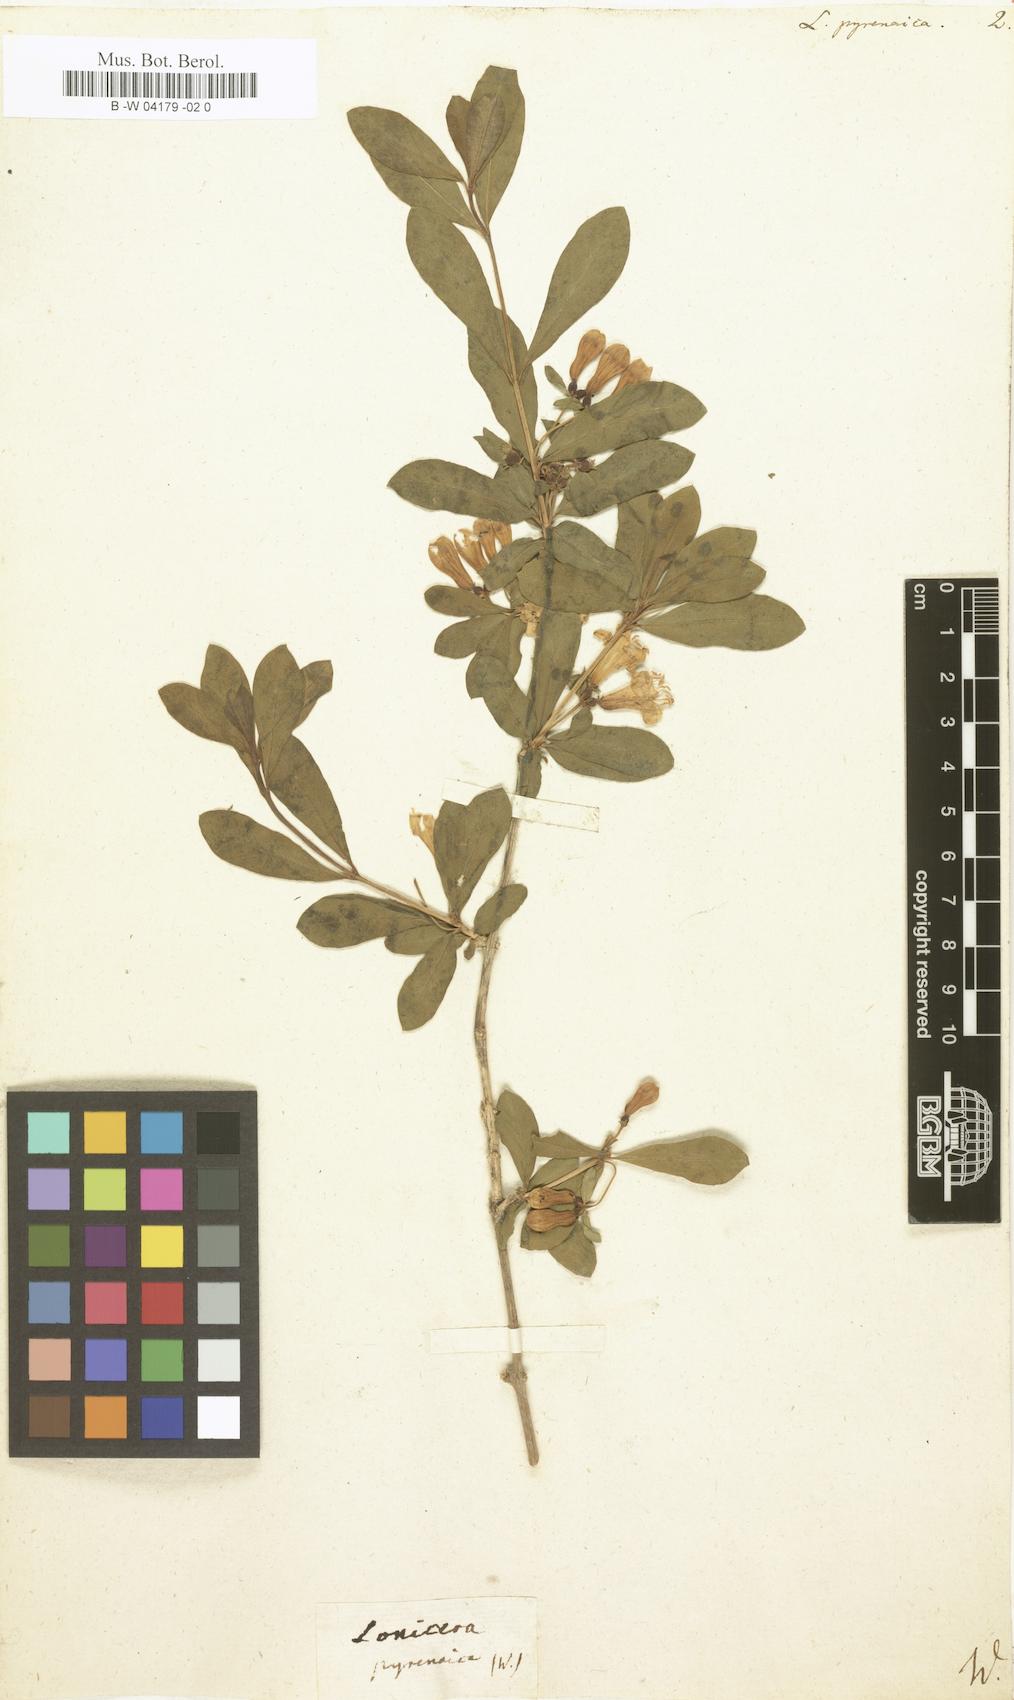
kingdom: Plantae
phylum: Tracheophyta
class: Magnoliopsida
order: Dipsacales
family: Caprifoliaceae
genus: Lonicera
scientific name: Lonicera pyrenaica
